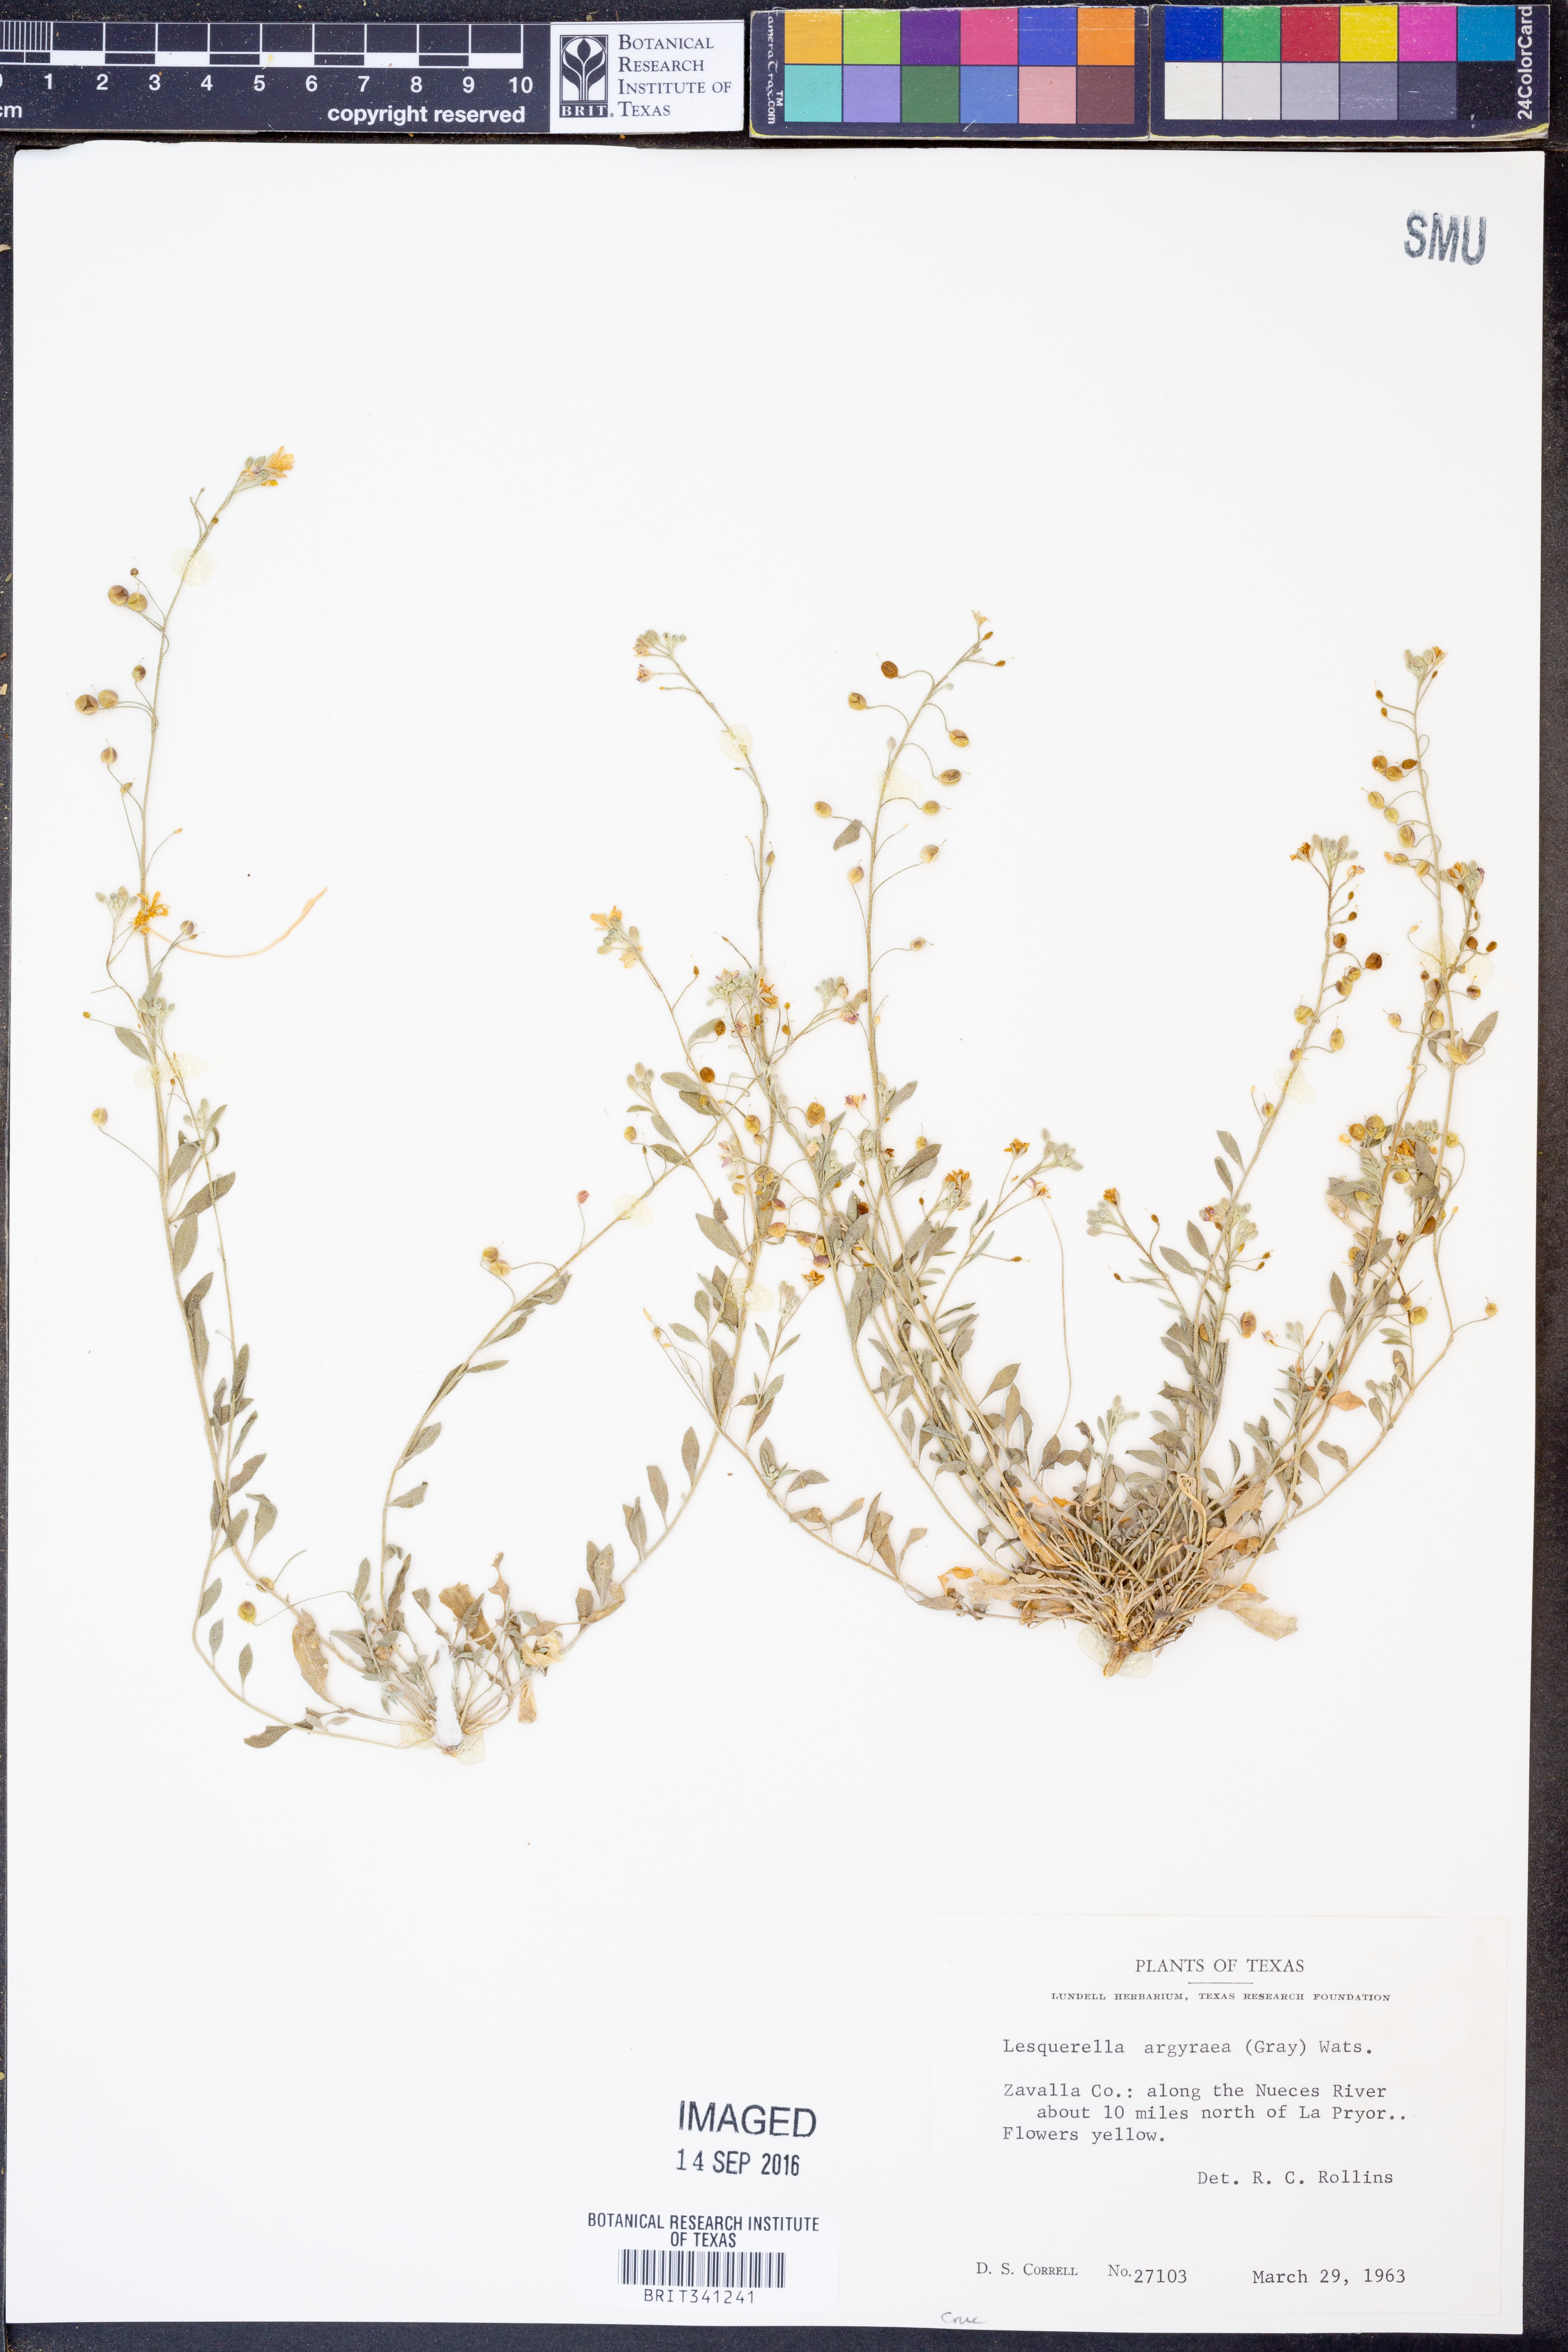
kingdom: Plantae
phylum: Tracheophyta
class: Magnoliopsida
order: Brassicales
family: Brassicaceae
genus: Physaria
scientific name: Physaria argyraea
